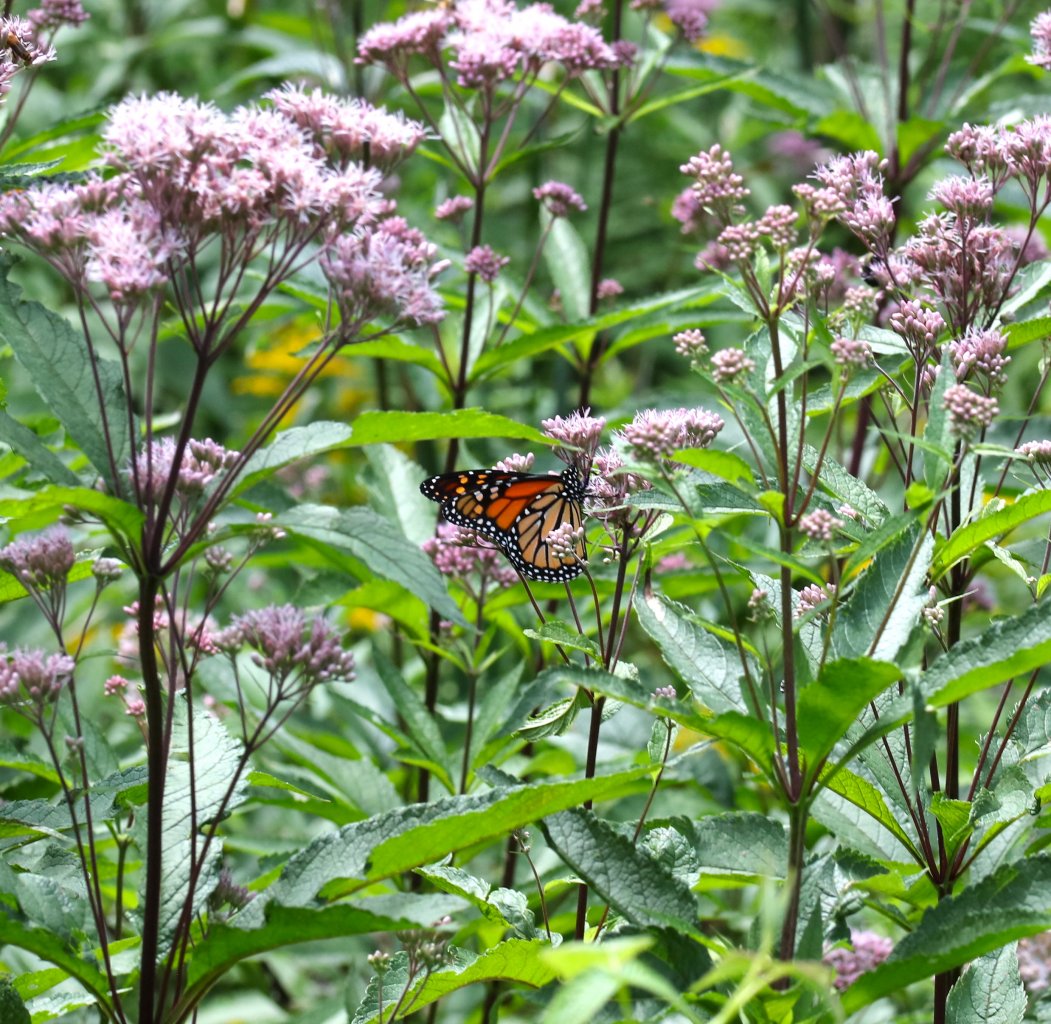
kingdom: Animalia
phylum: Arthropoda
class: Insecta
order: Lepidoptera
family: Nymphalidae
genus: Danaus
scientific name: Danaus plexippus
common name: Monarch
